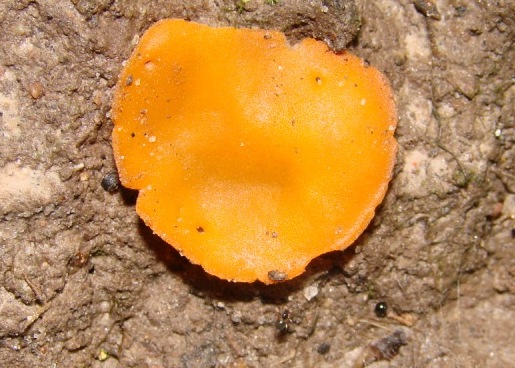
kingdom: Fungi
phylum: Ascomycota
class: Pezizomycetes
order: Pezizales
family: Pyronemataceae
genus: Aleuria
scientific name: Aleuria aurantia
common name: almindelig orangebæger
